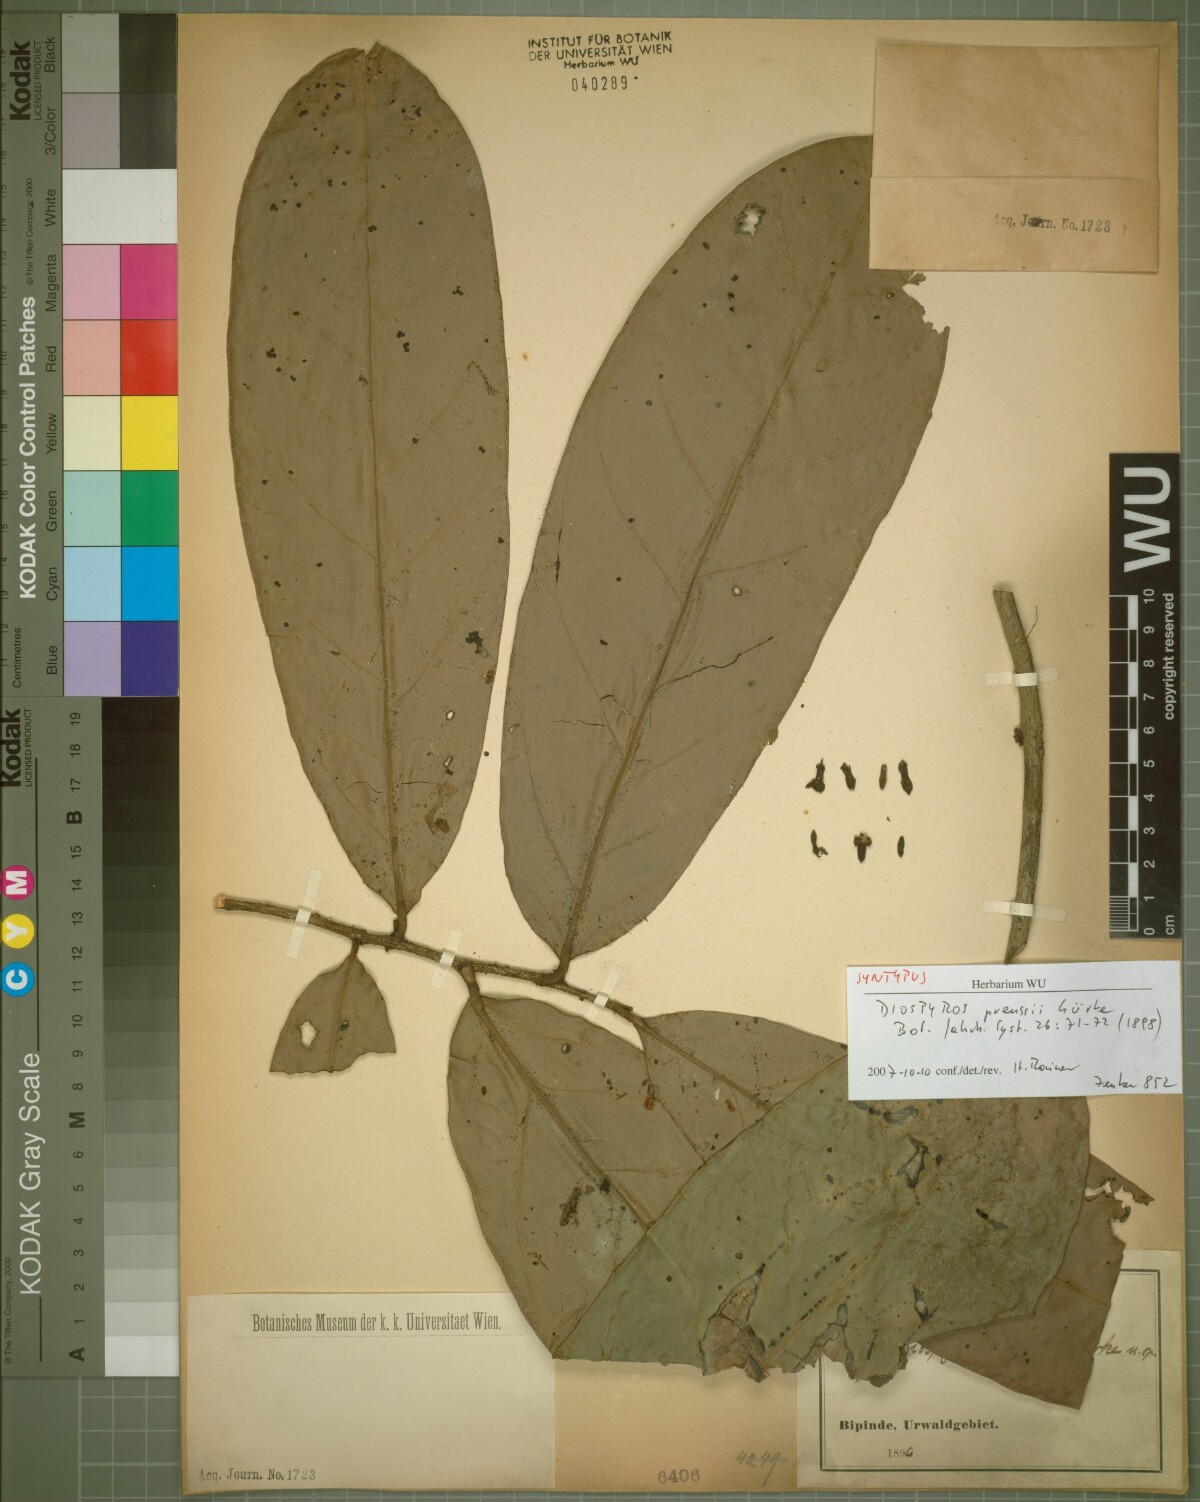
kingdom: Plantae
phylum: Tracheophyta
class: Magnoliopsida
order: Ericales
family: Ebenaceae
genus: Diospyros
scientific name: Diospyros preussii
